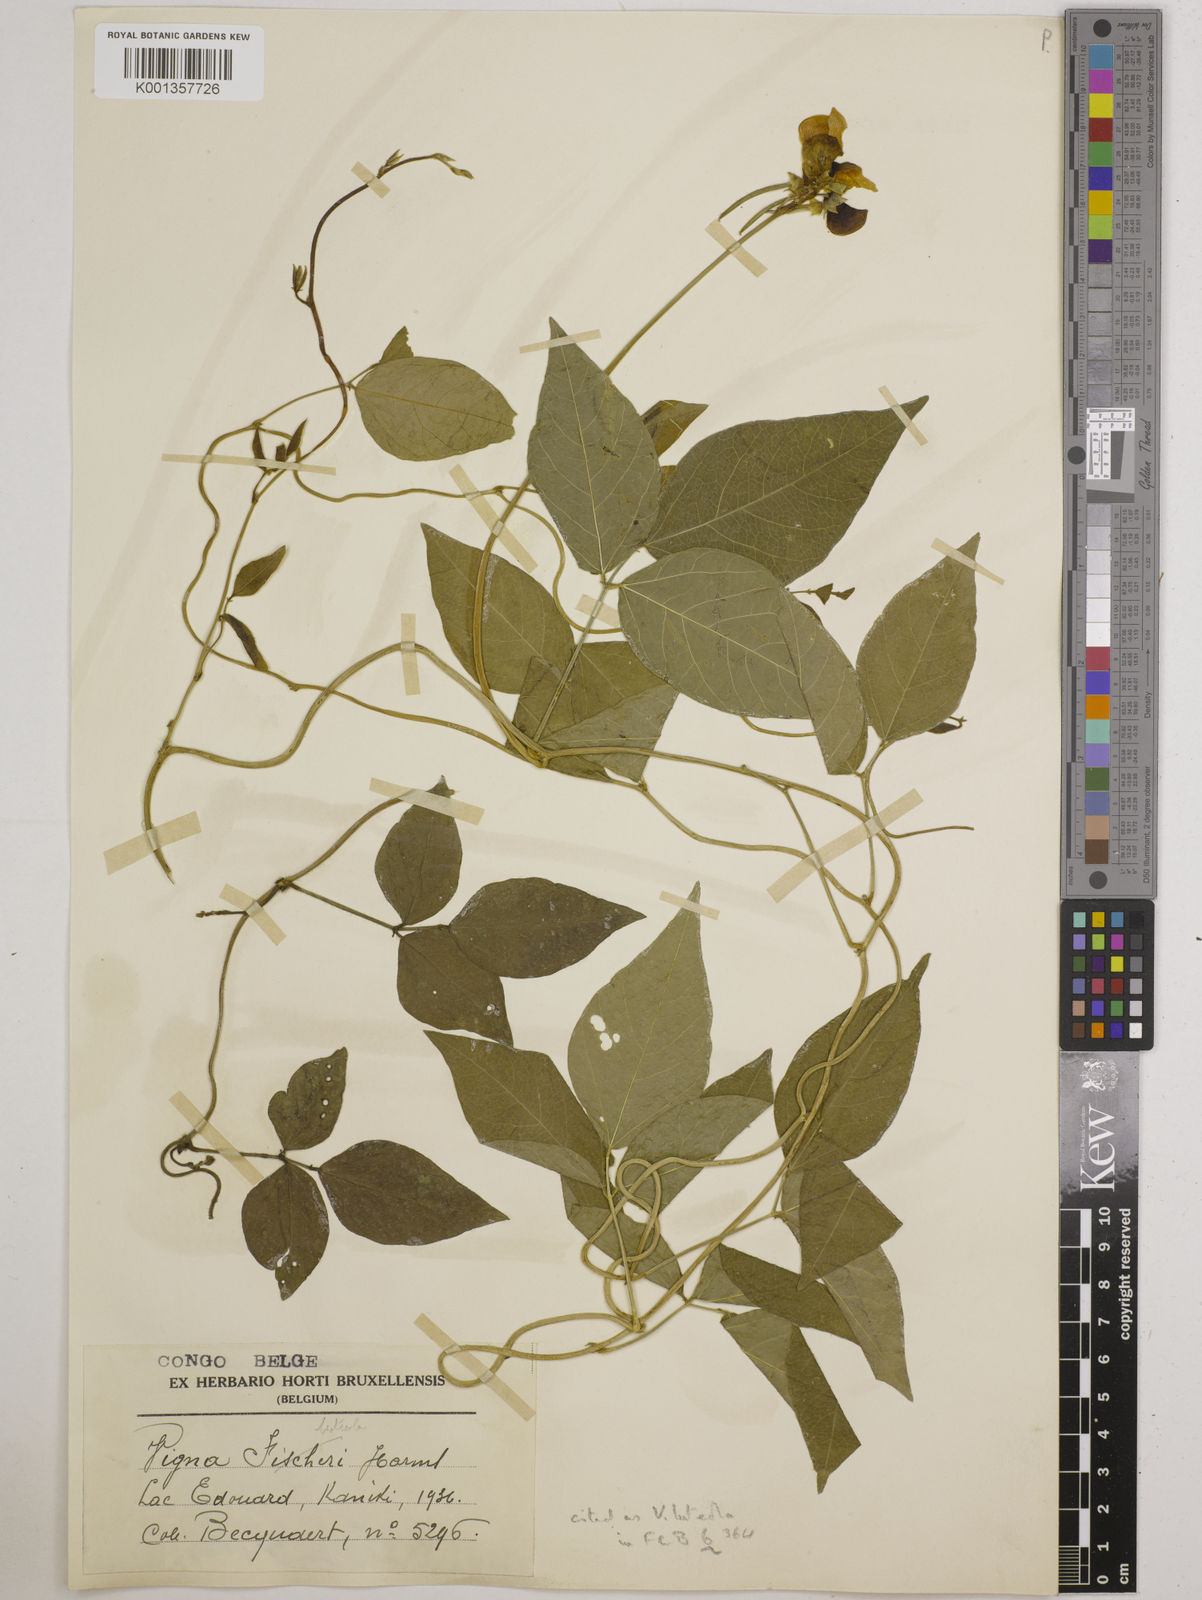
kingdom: Plantae
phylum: Tracheophyta
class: Magnoliopsida
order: Fabales
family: Fabaceae
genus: Vigna
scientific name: Vigna luteola
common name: Hairypod cowpea
